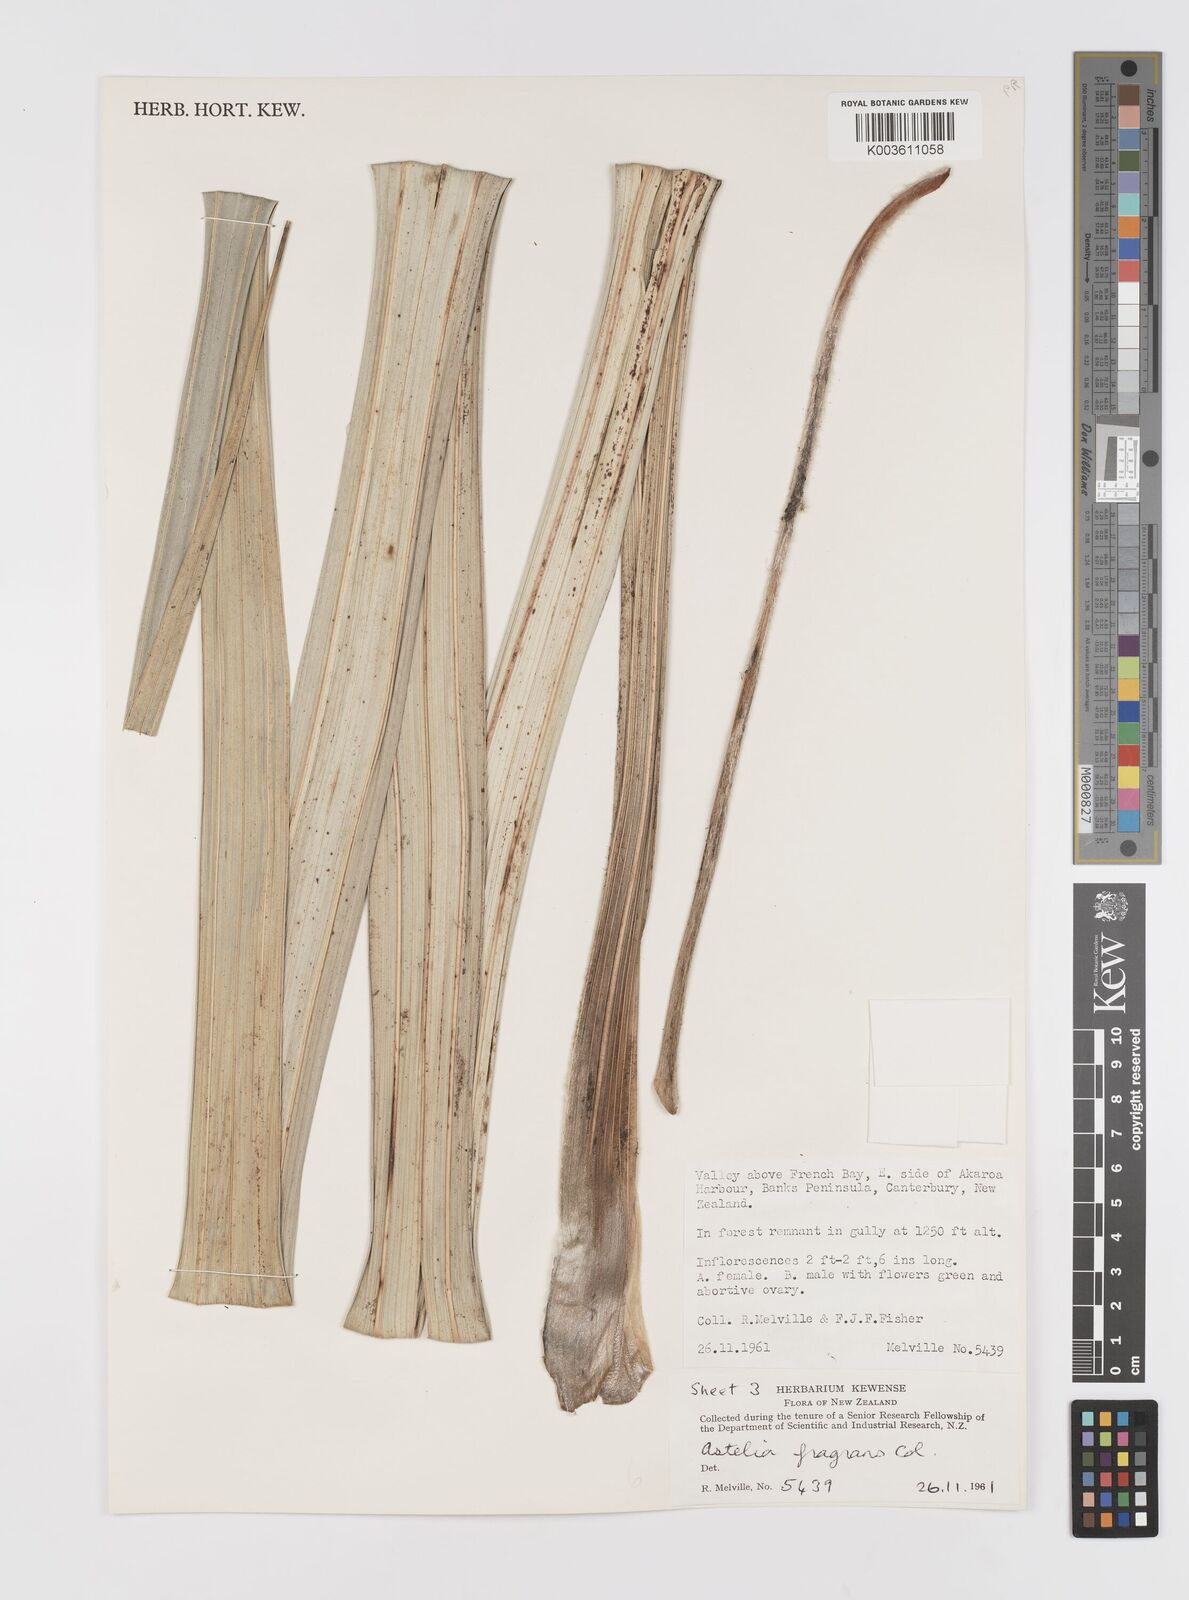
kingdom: Plantae
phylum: Tracheophyta
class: Liliopsida
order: Asparagales
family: Asteliaceae
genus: Astelia
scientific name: Astelia fragrans
